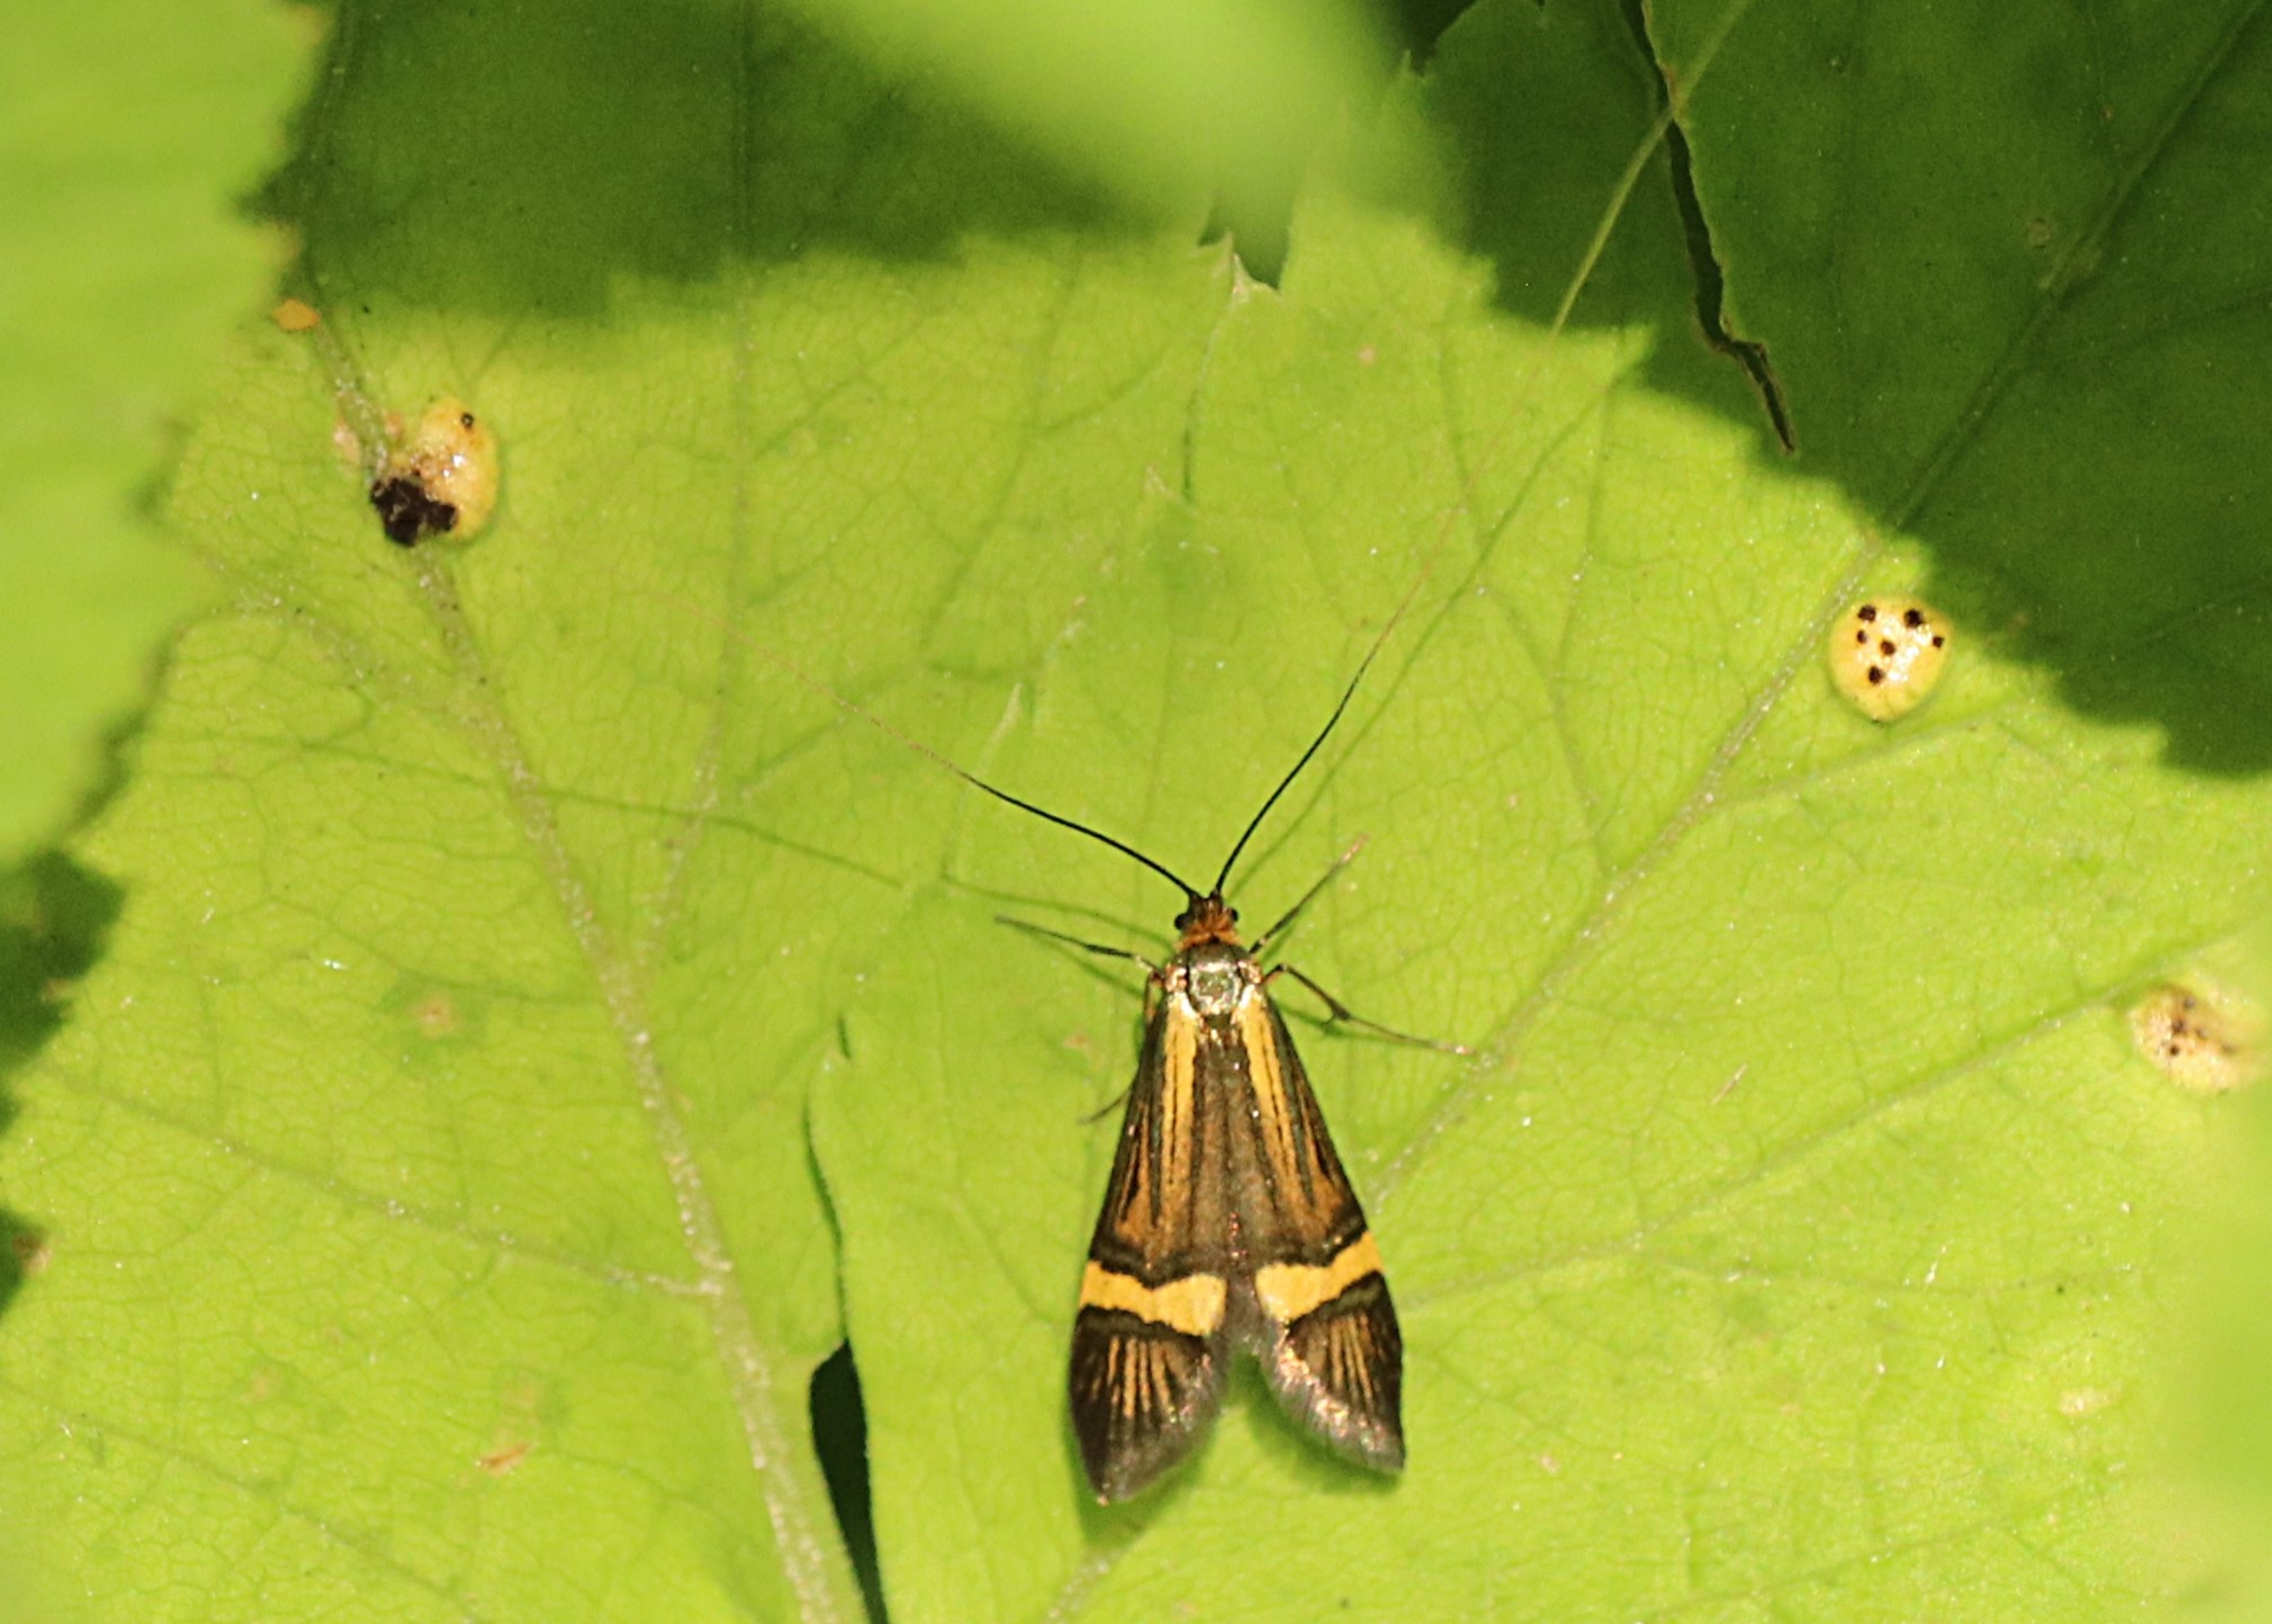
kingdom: Animalia
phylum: Arthropoda
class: Insecta
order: Lepidoptera
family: Adelidae
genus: Nemophora
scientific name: Nemophora degeerella
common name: Løvskovslanghornsmøl
